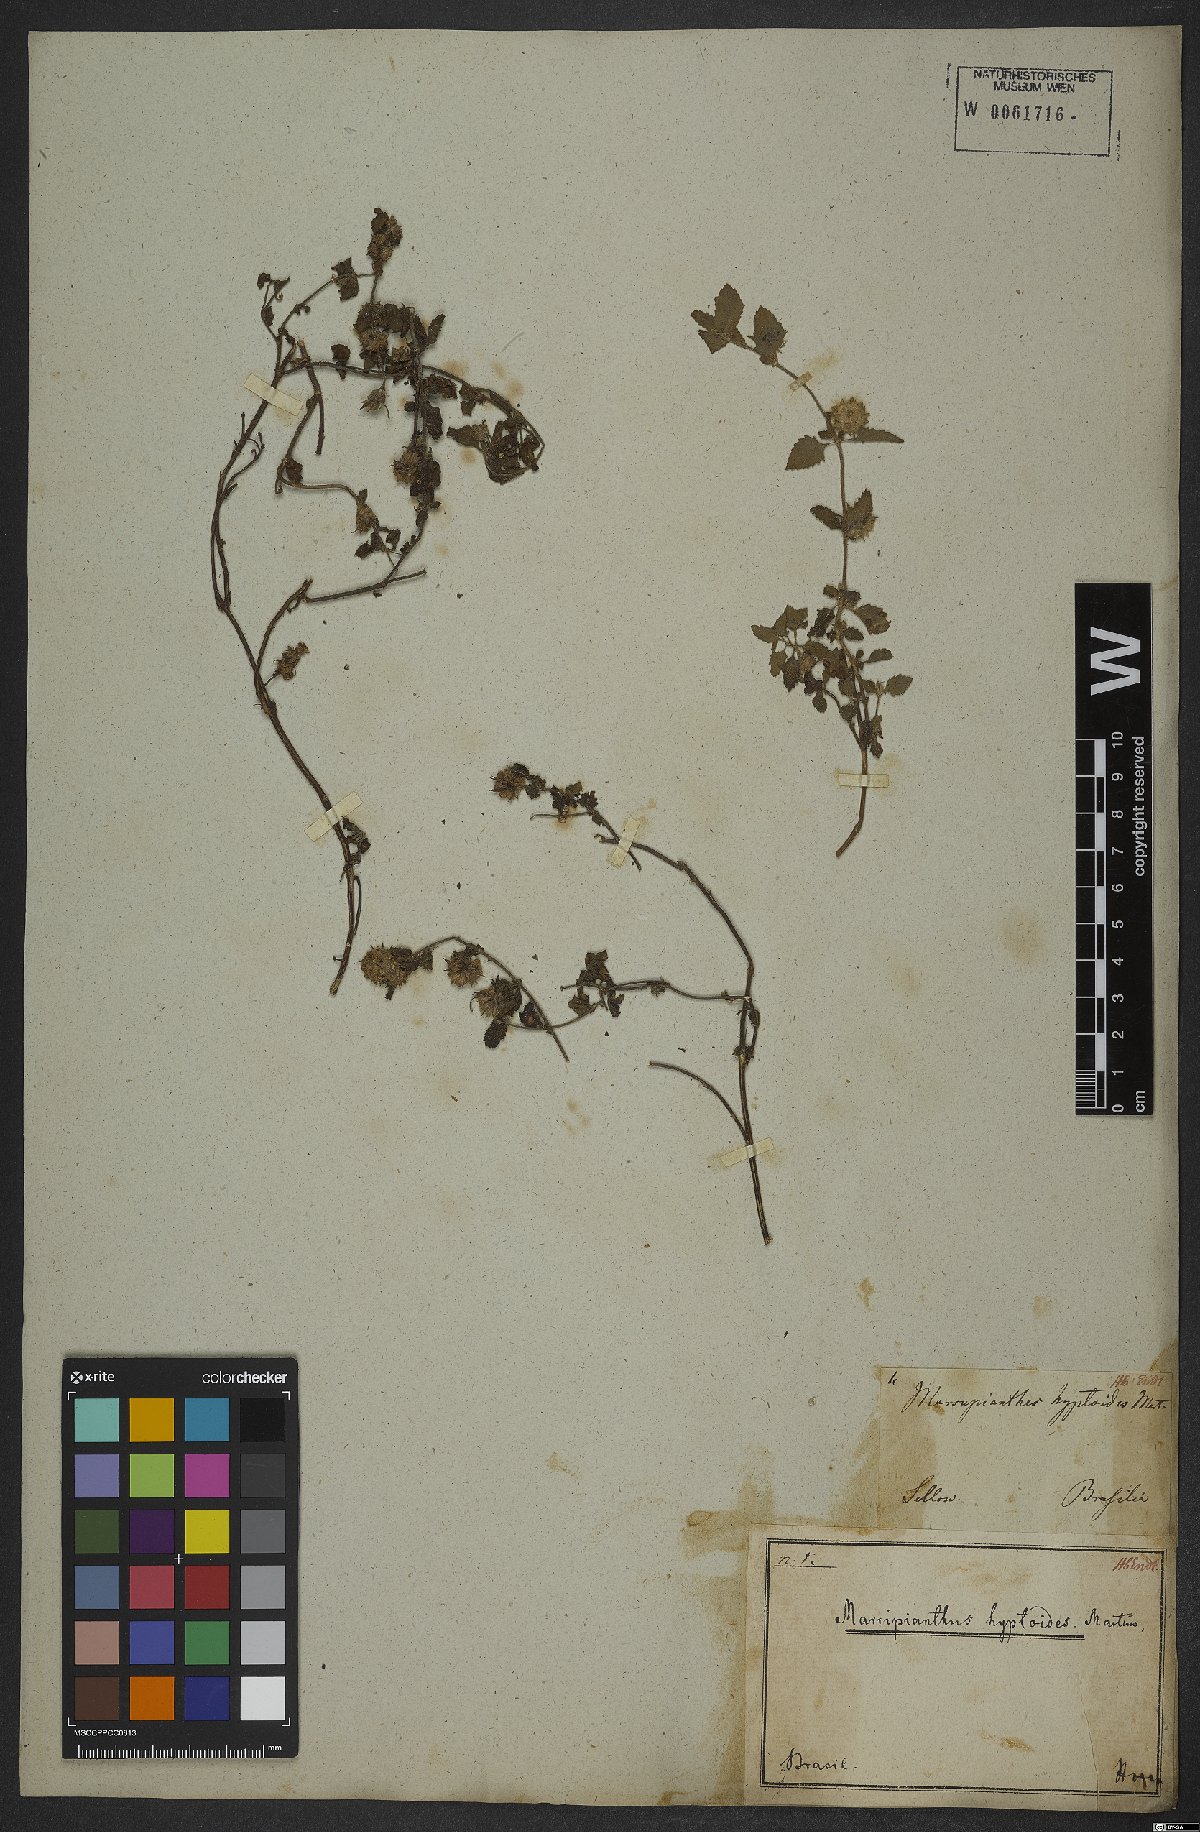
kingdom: Plantae
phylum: Tracheophyta
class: Magnoliopsida
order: Lamiales
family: Lamiaceae
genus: Marsypianthes
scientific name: Marsypianthes chamaedrys
